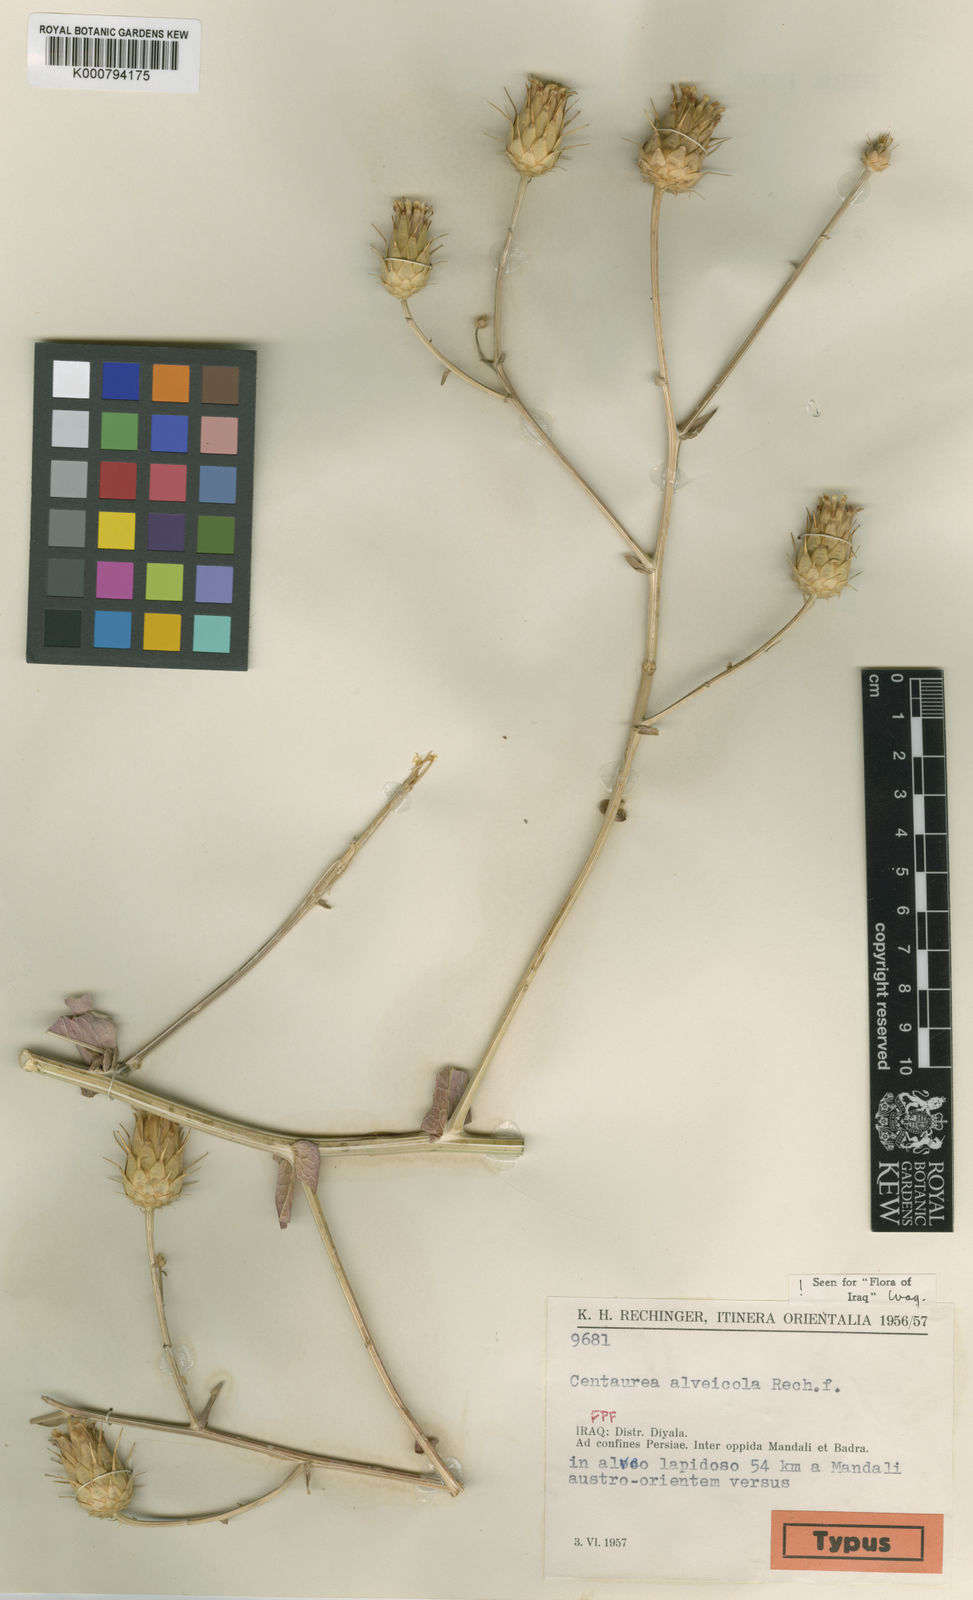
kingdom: Plantae
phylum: Tracheophyta
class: Magnoliopsida
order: Asterales
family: Asteraceae
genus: Centaurea
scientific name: Centaurea alveicola
